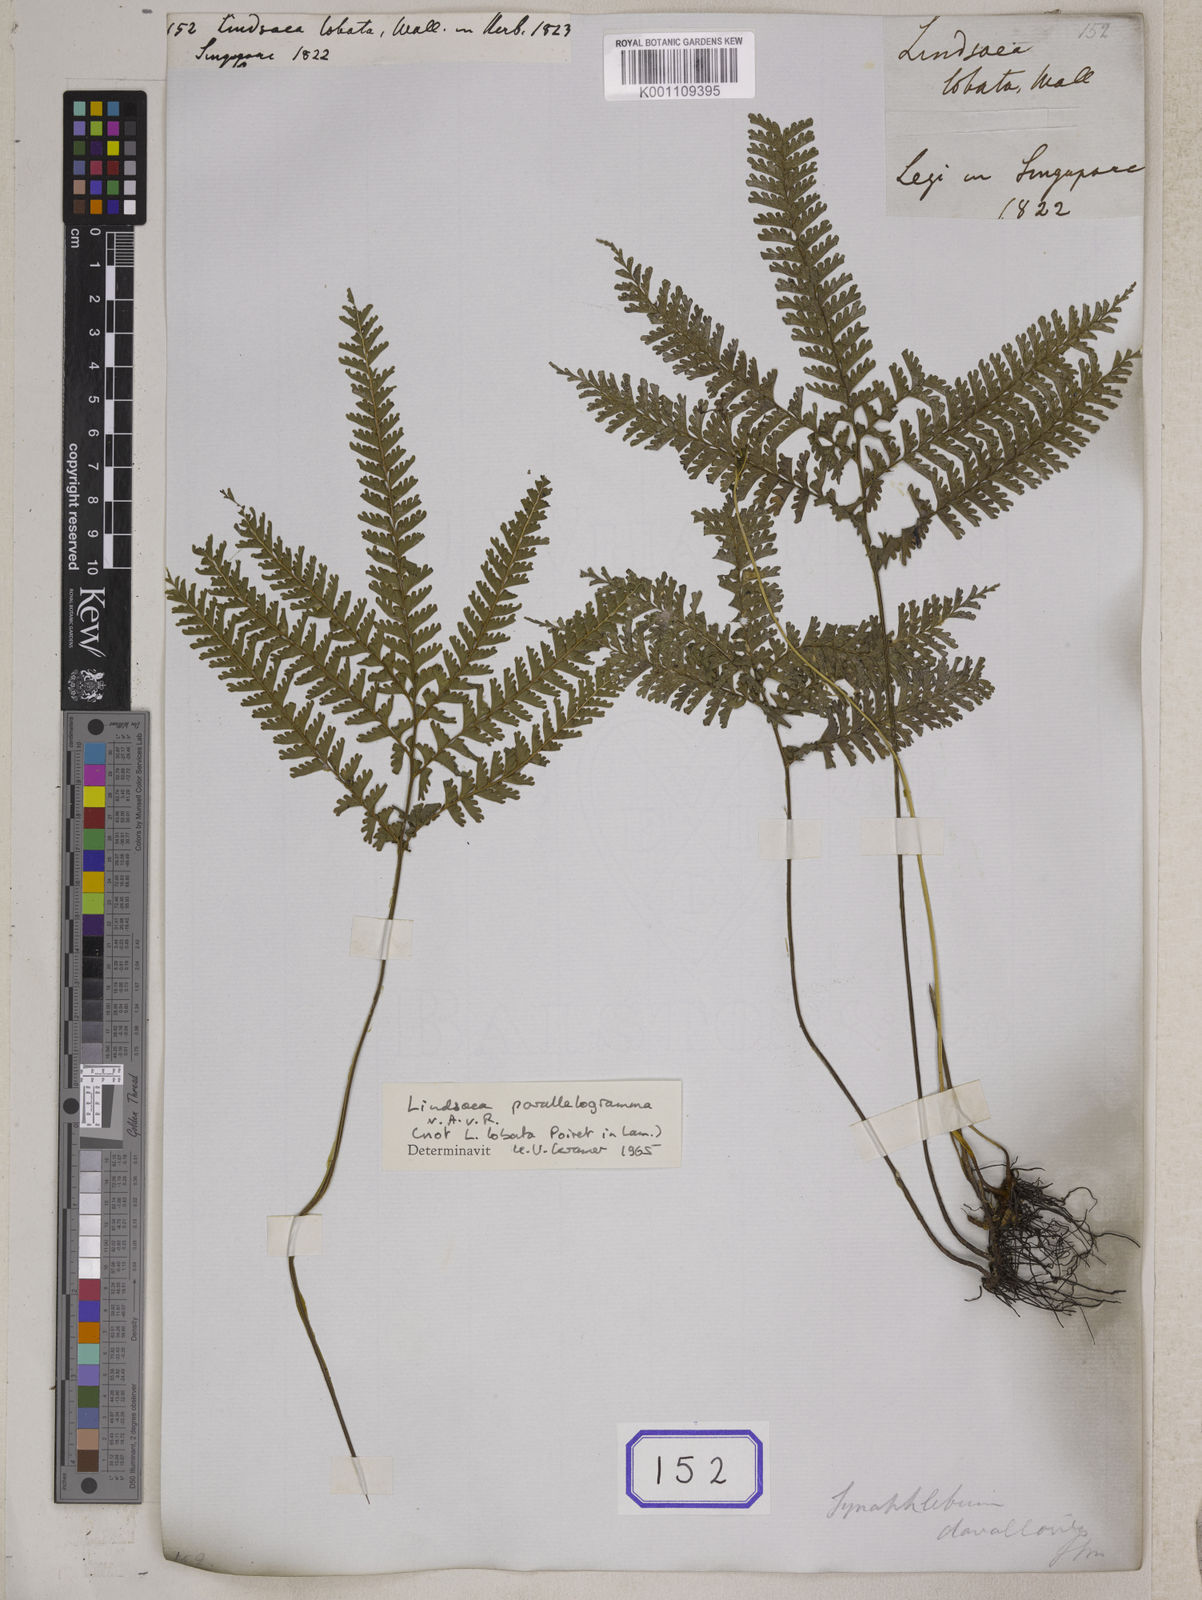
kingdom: Plantae
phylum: Tracheophyta
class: Polypodiopsida
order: Polypodiales
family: Lindsaeaceae
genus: Lindsaea
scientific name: Lindsaea
